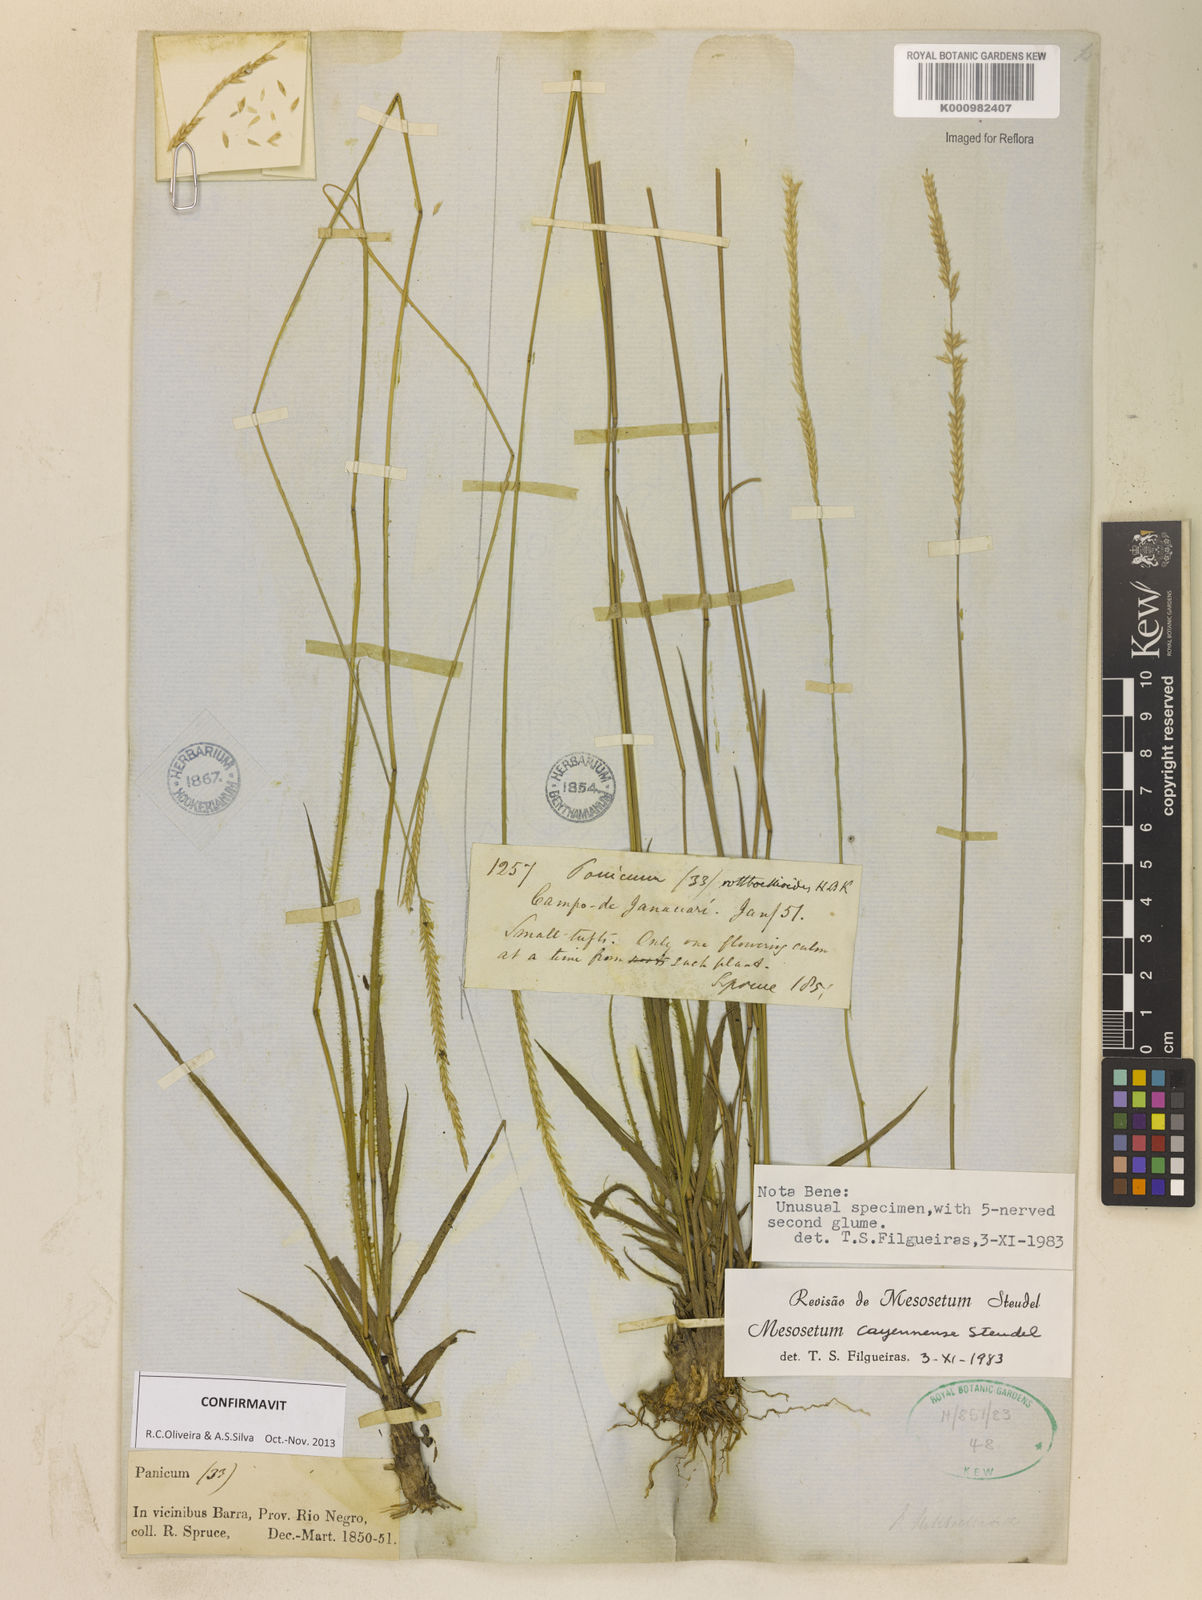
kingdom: Plantae
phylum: Tracheophyta
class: Liliopsida
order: Poales
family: Poaceae
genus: Mesosetum
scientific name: Mesosetum cayennense
